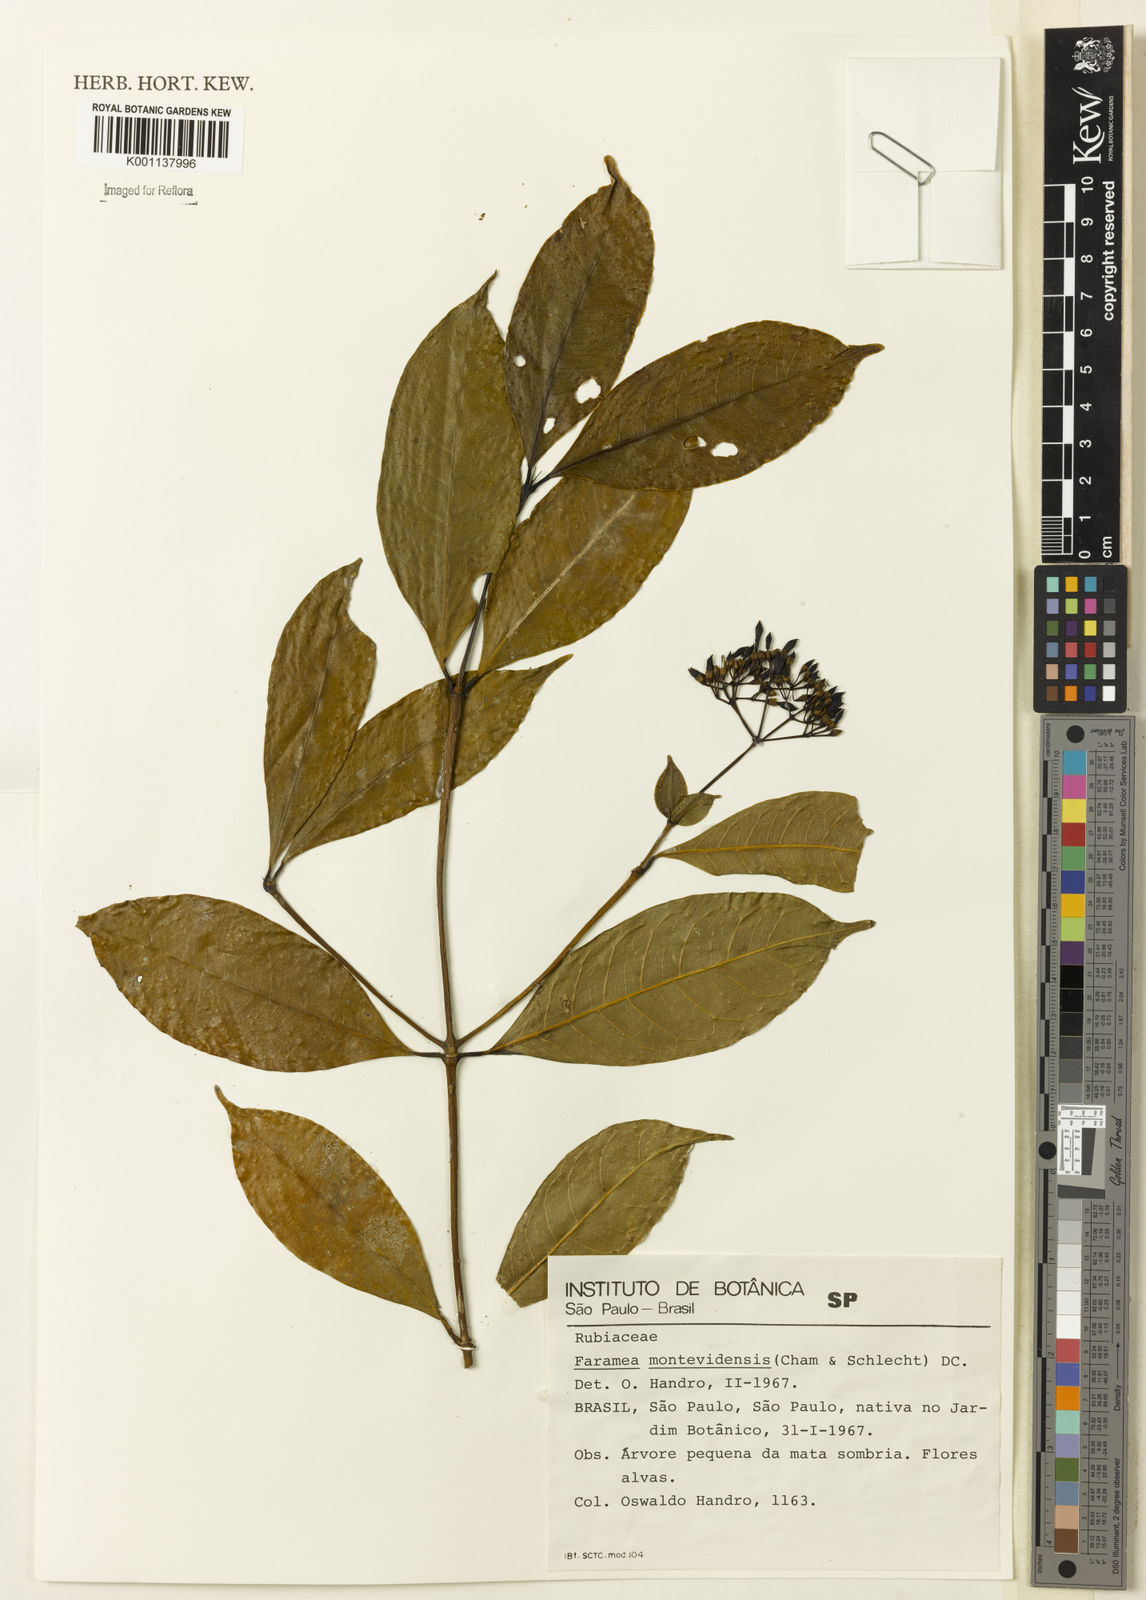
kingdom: Plantae
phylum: Tracheophyta
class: Magnoliopsida
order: Gentianales
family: Rubiaceae
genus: Faramea
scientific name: Faramea montevidensis
